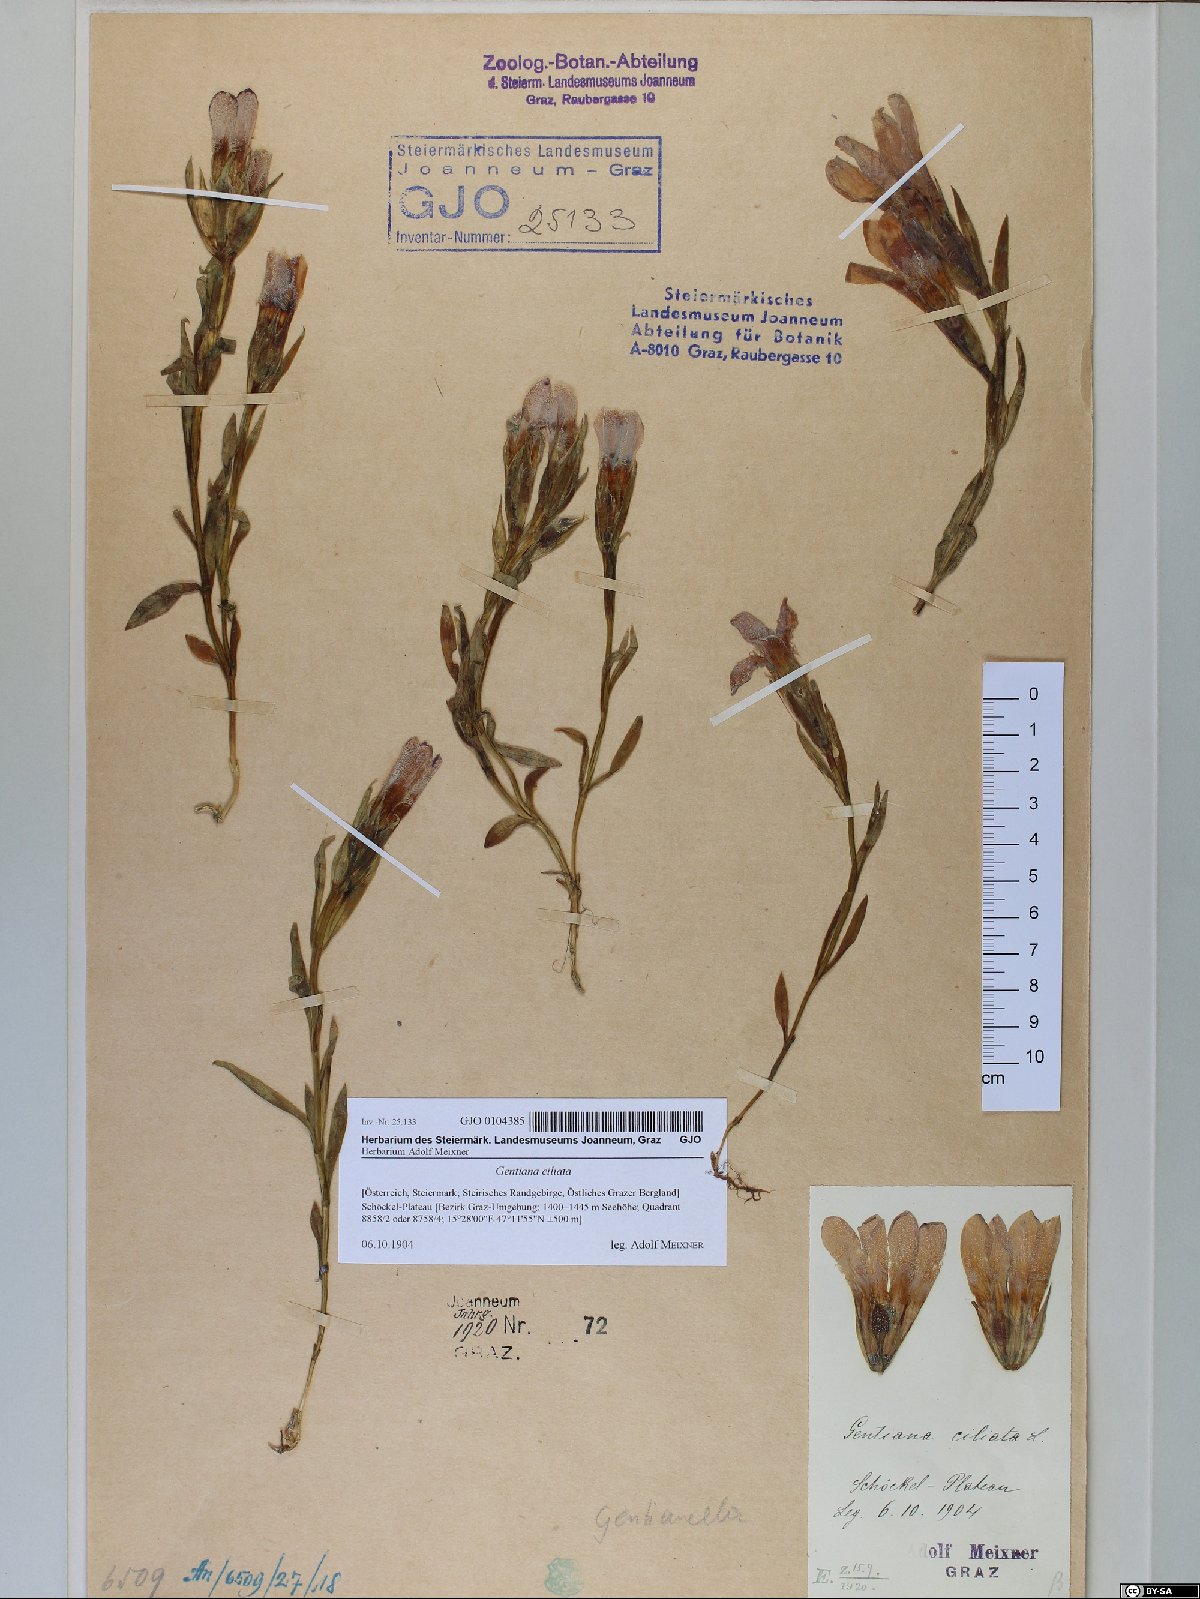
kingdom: Plantae
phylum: Tracheophyta
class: Magnoliopsida
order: Gentianales
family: Gentianaceae
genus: Gentianopsis
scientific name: Gentianopsis ciliata
